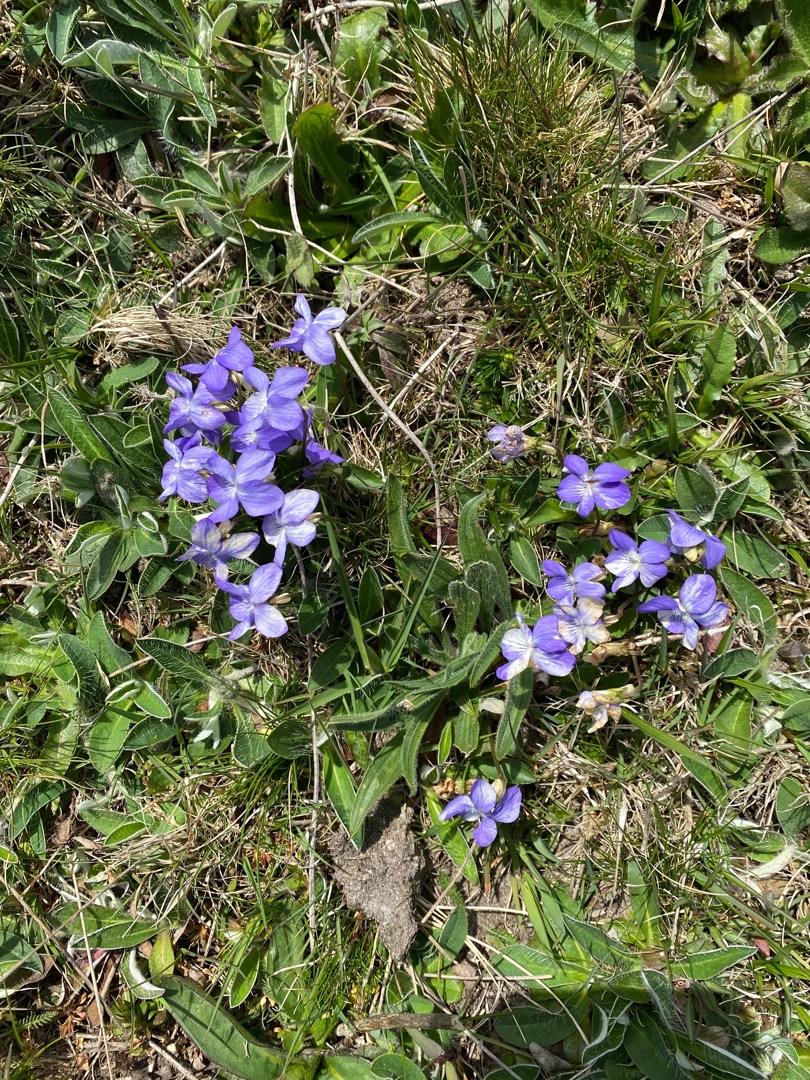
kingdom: Plantae
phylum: Tracheophyta
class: Magnoliopsida
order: Malpighiales
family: Violaceae
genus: Viola
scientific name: Viola canina
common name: Hunde-viol
